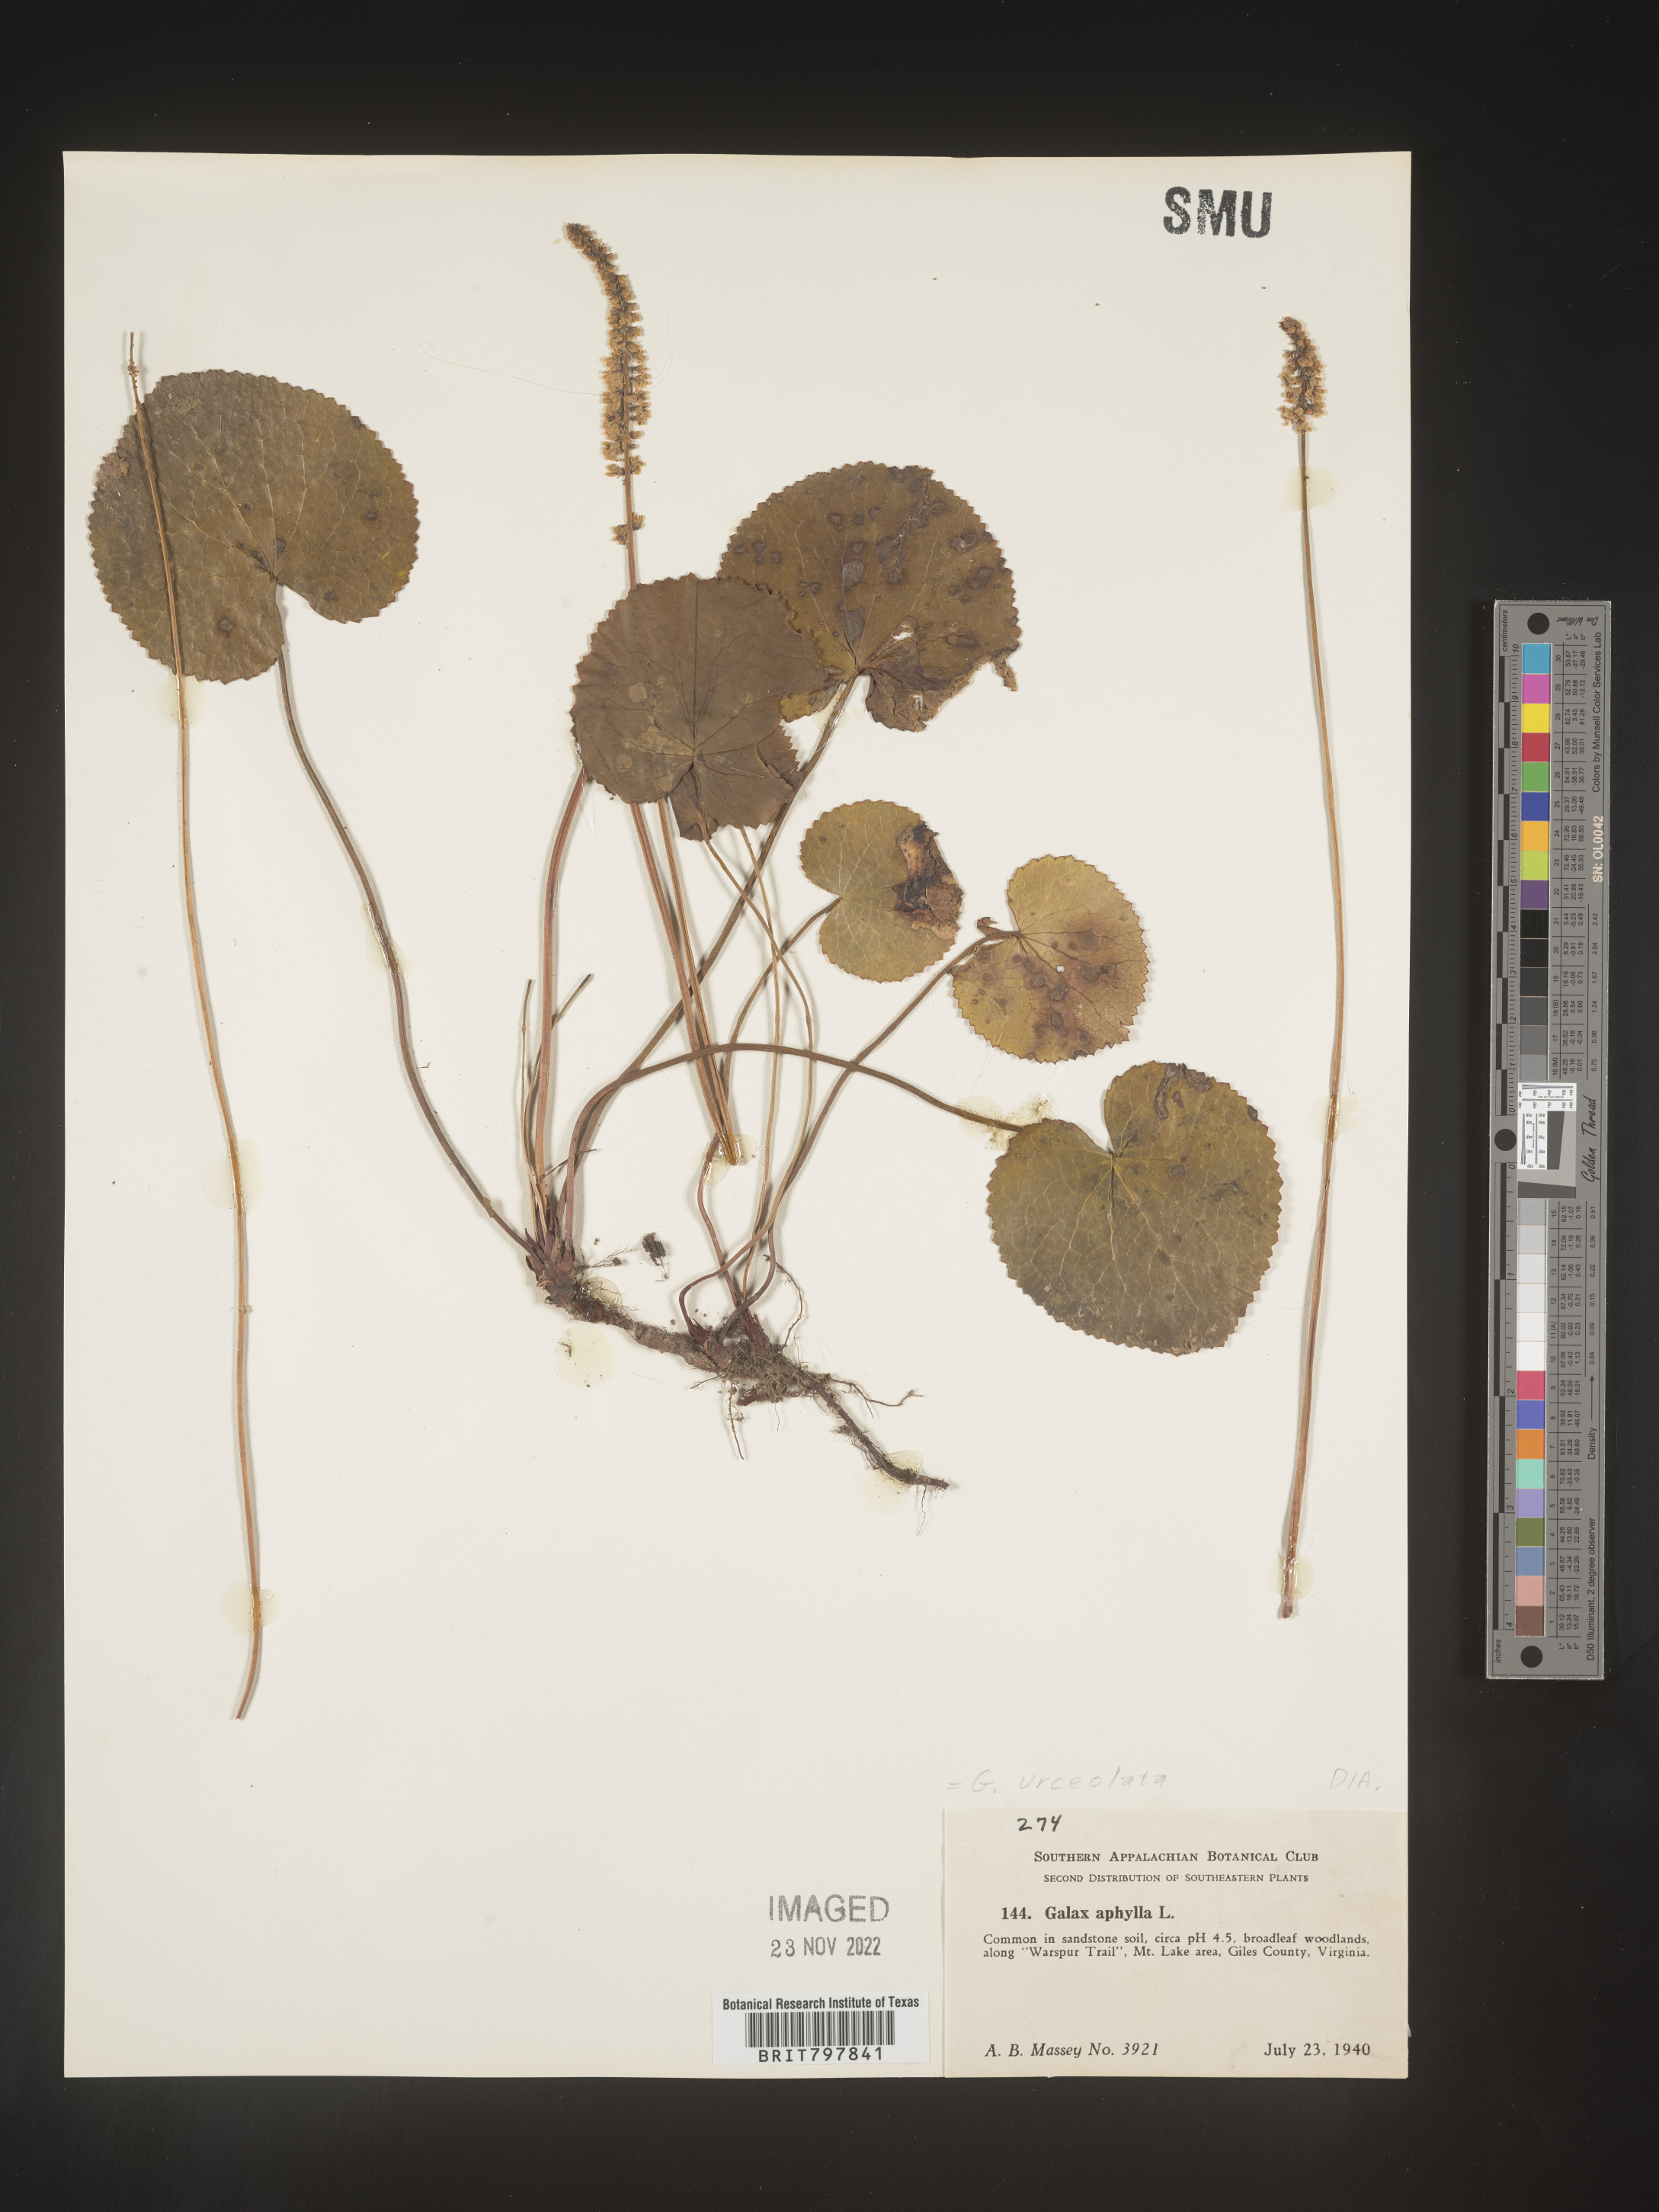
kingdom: Plantae
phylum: Tracheophyta
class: Magnoliopsida
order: Ericales
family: Diapensiaceae
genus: Galax
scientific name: Galax
